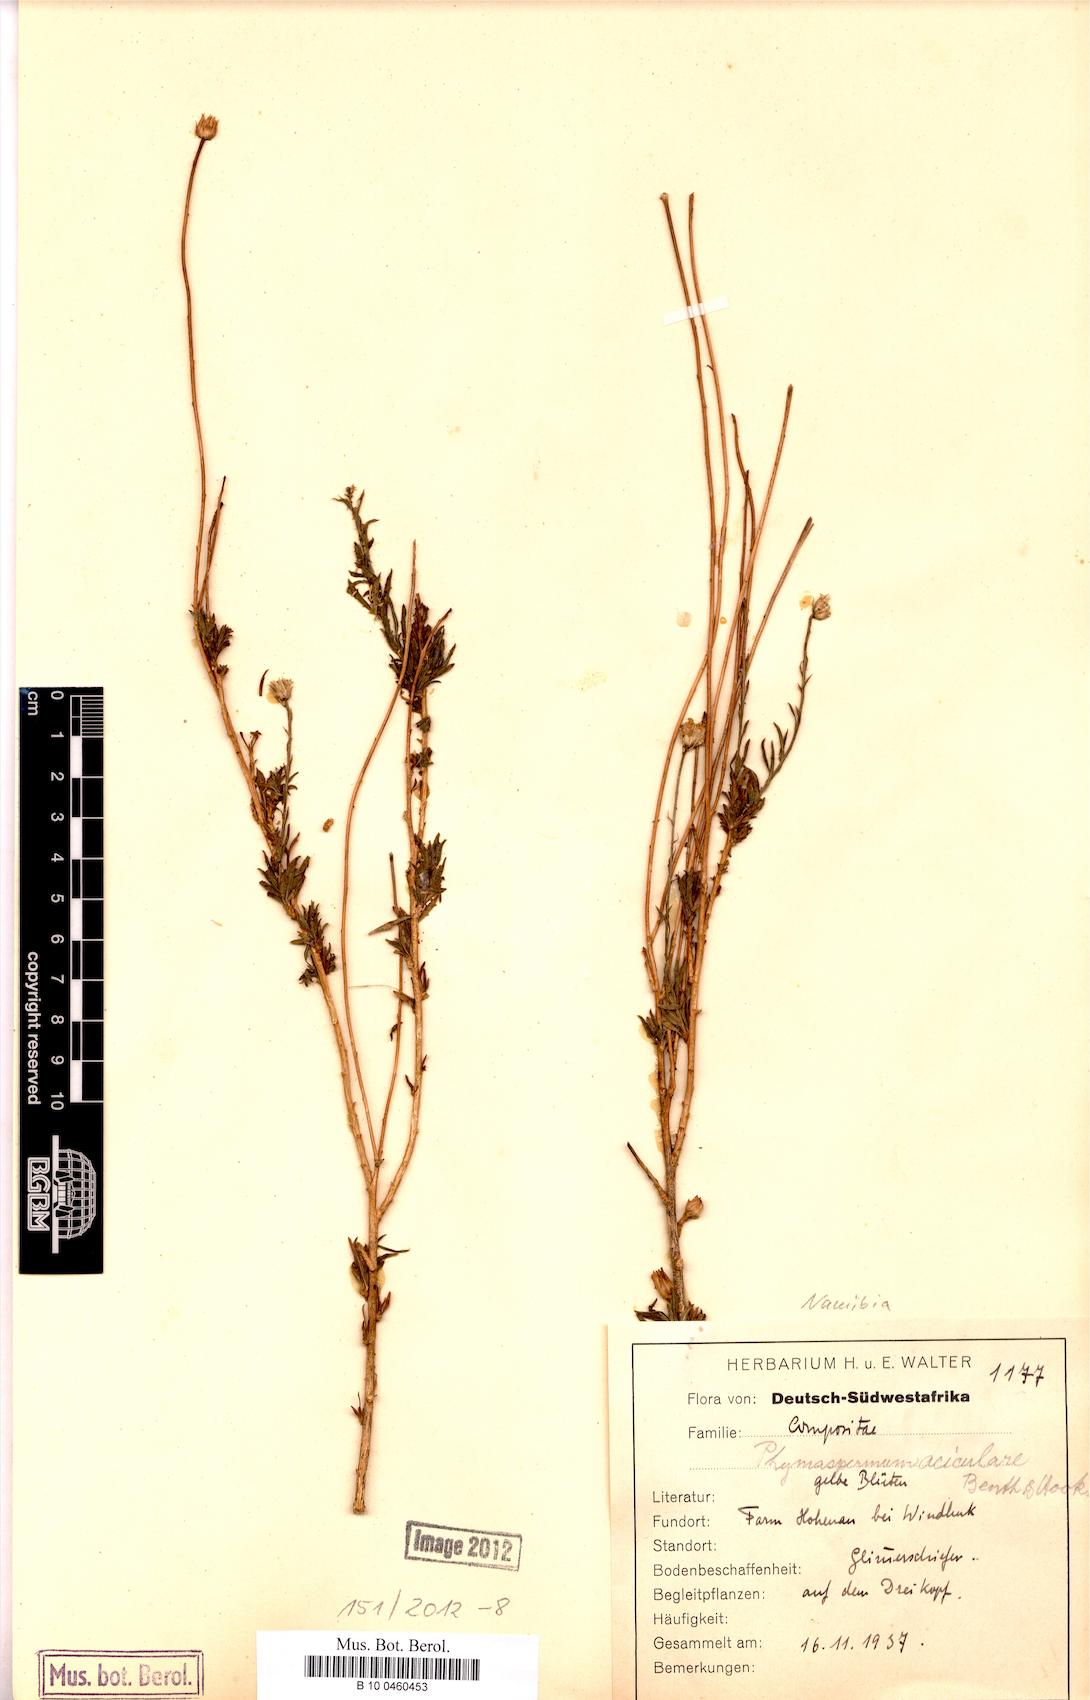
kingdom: Plantae
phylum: Tracheophyta
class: Magnoliopsida
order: Asterales
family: Asteraceae
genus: Phymaspermum
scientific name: Phymaspermum aciculare
